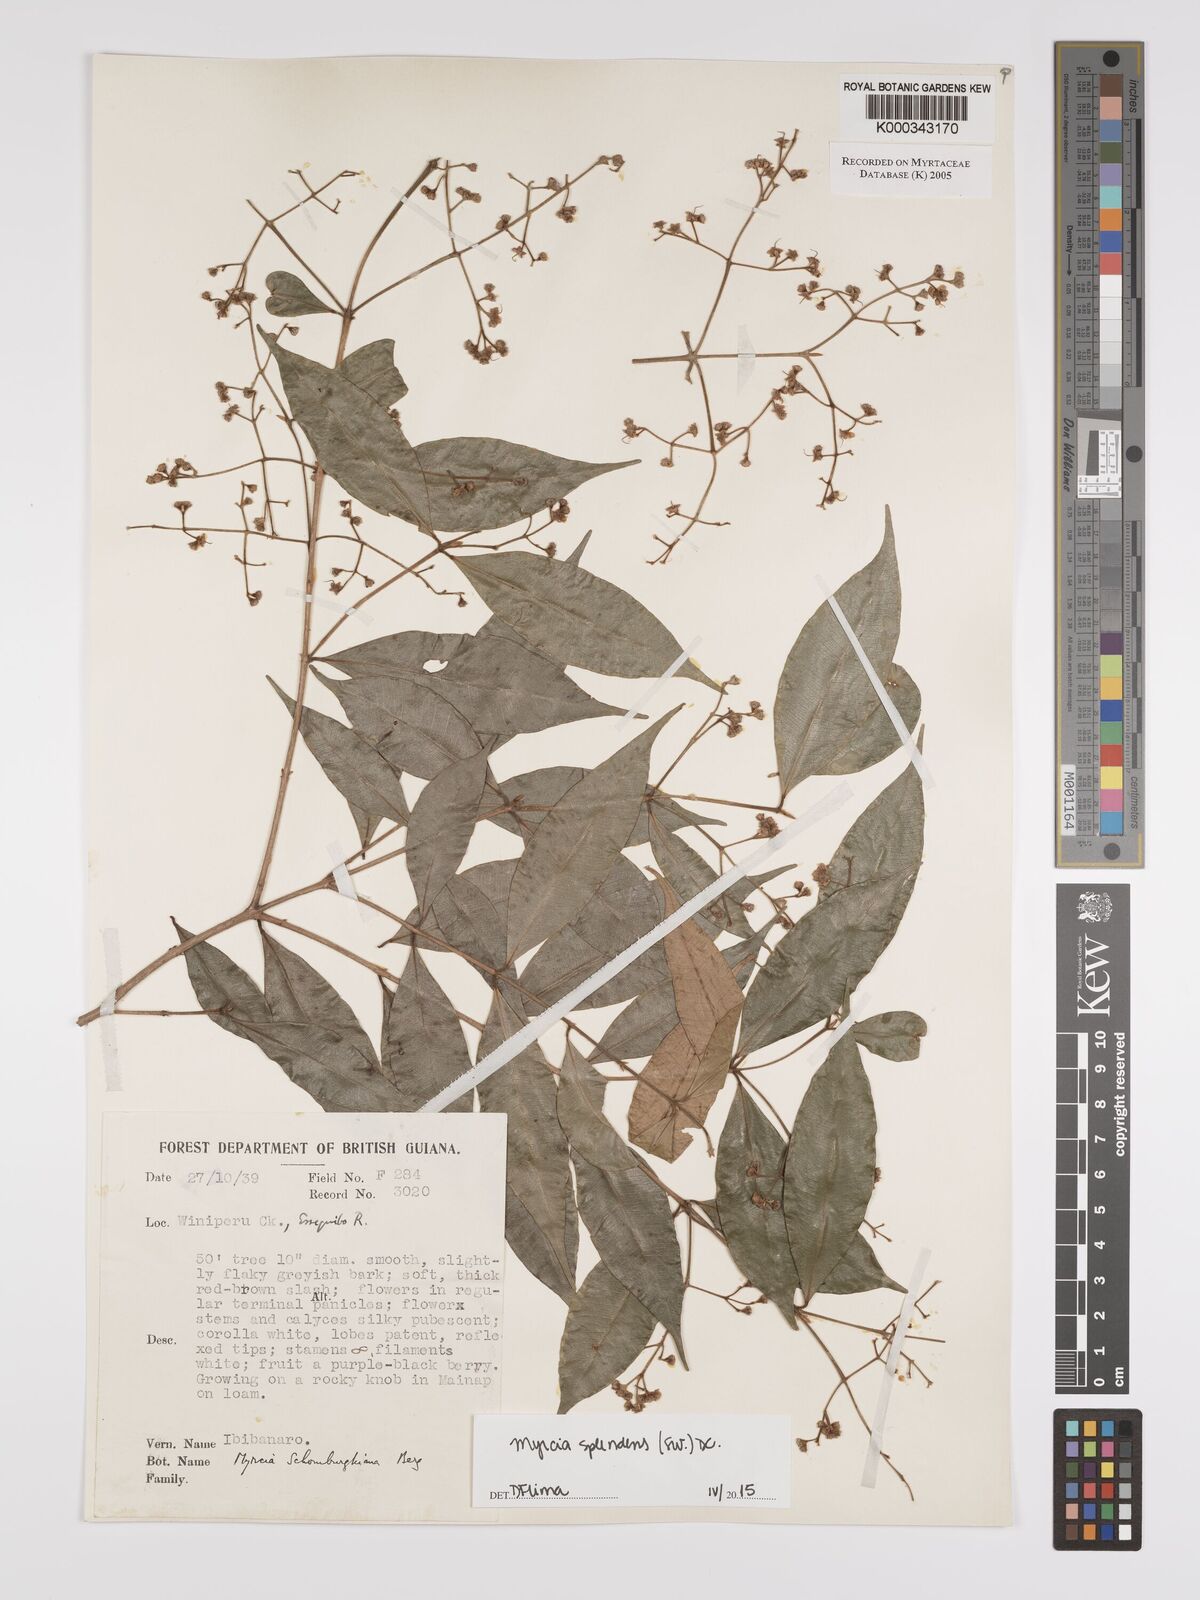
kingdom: Plantae
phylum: Tracheophyta
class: Magnoliopsida
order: Myrtales
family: Myrtaceae
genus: Myrcia
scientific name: Myrcia guianensis
